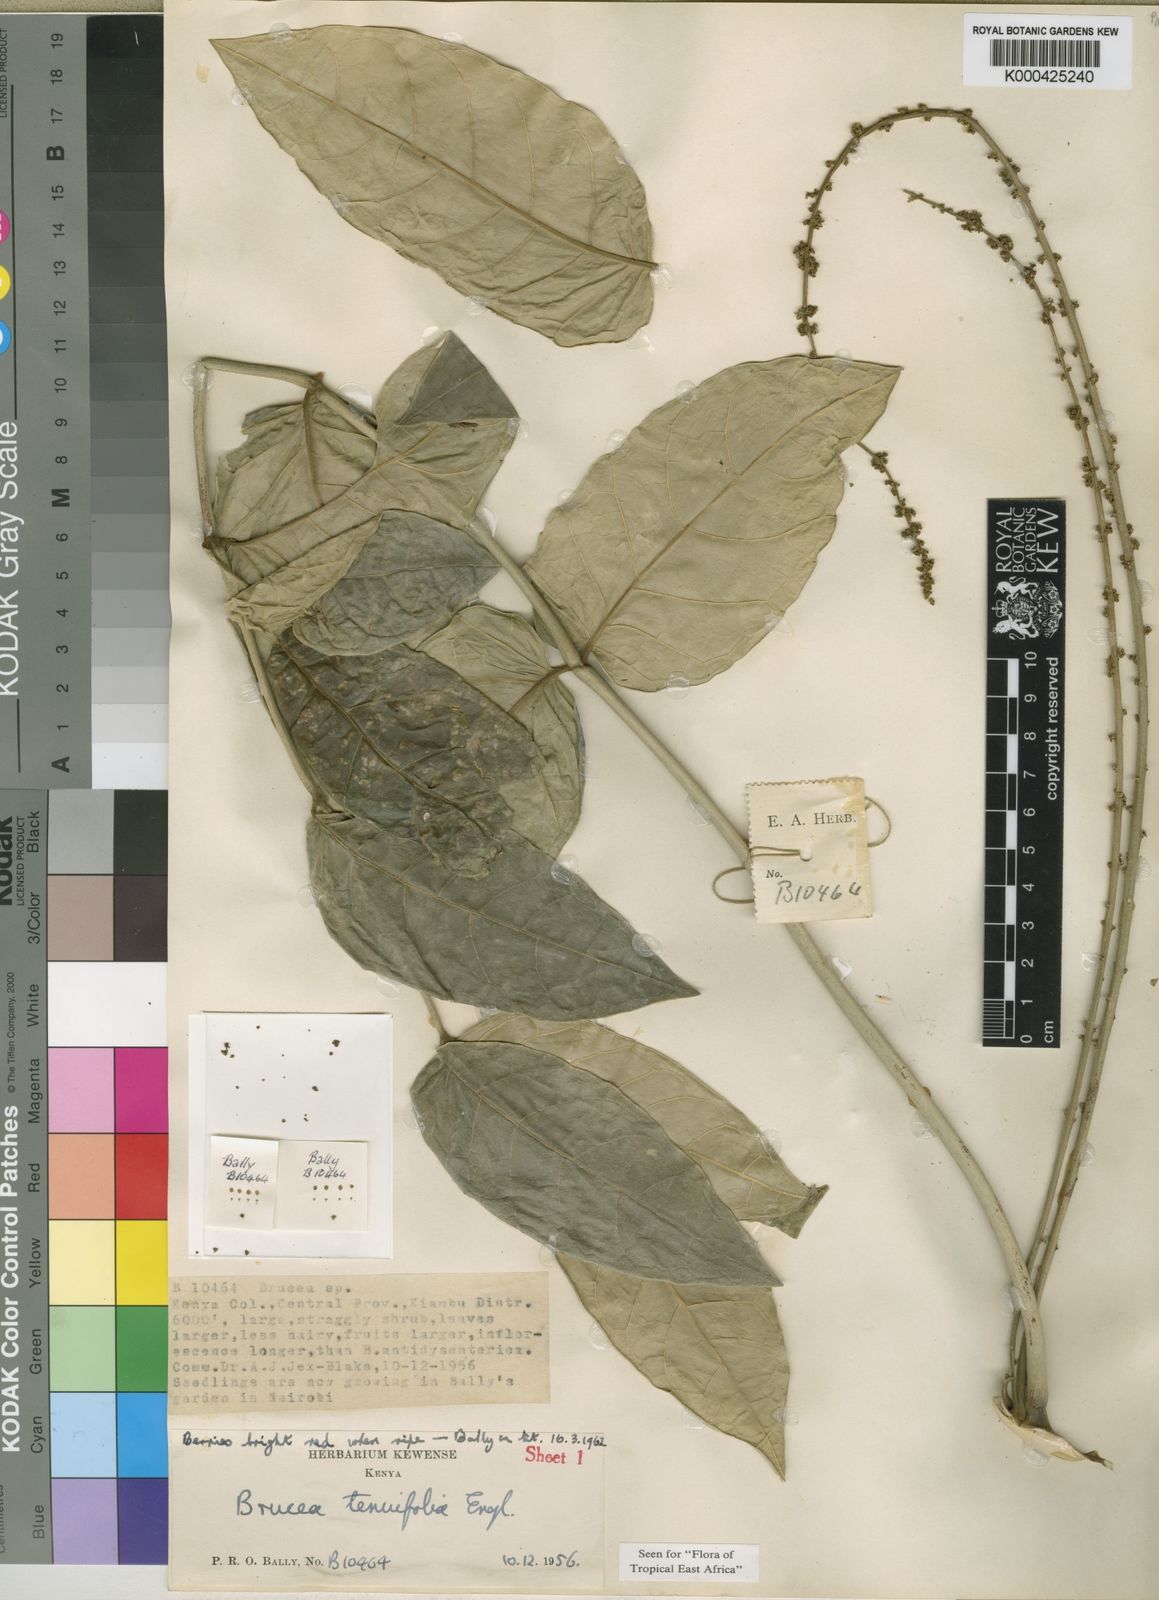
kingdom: Plantae
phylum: Tracheophyta
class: Magnoliopsida
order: Sapindales
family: Simaroubaceae
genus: Brucea
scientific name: Brucea macrocarpa
